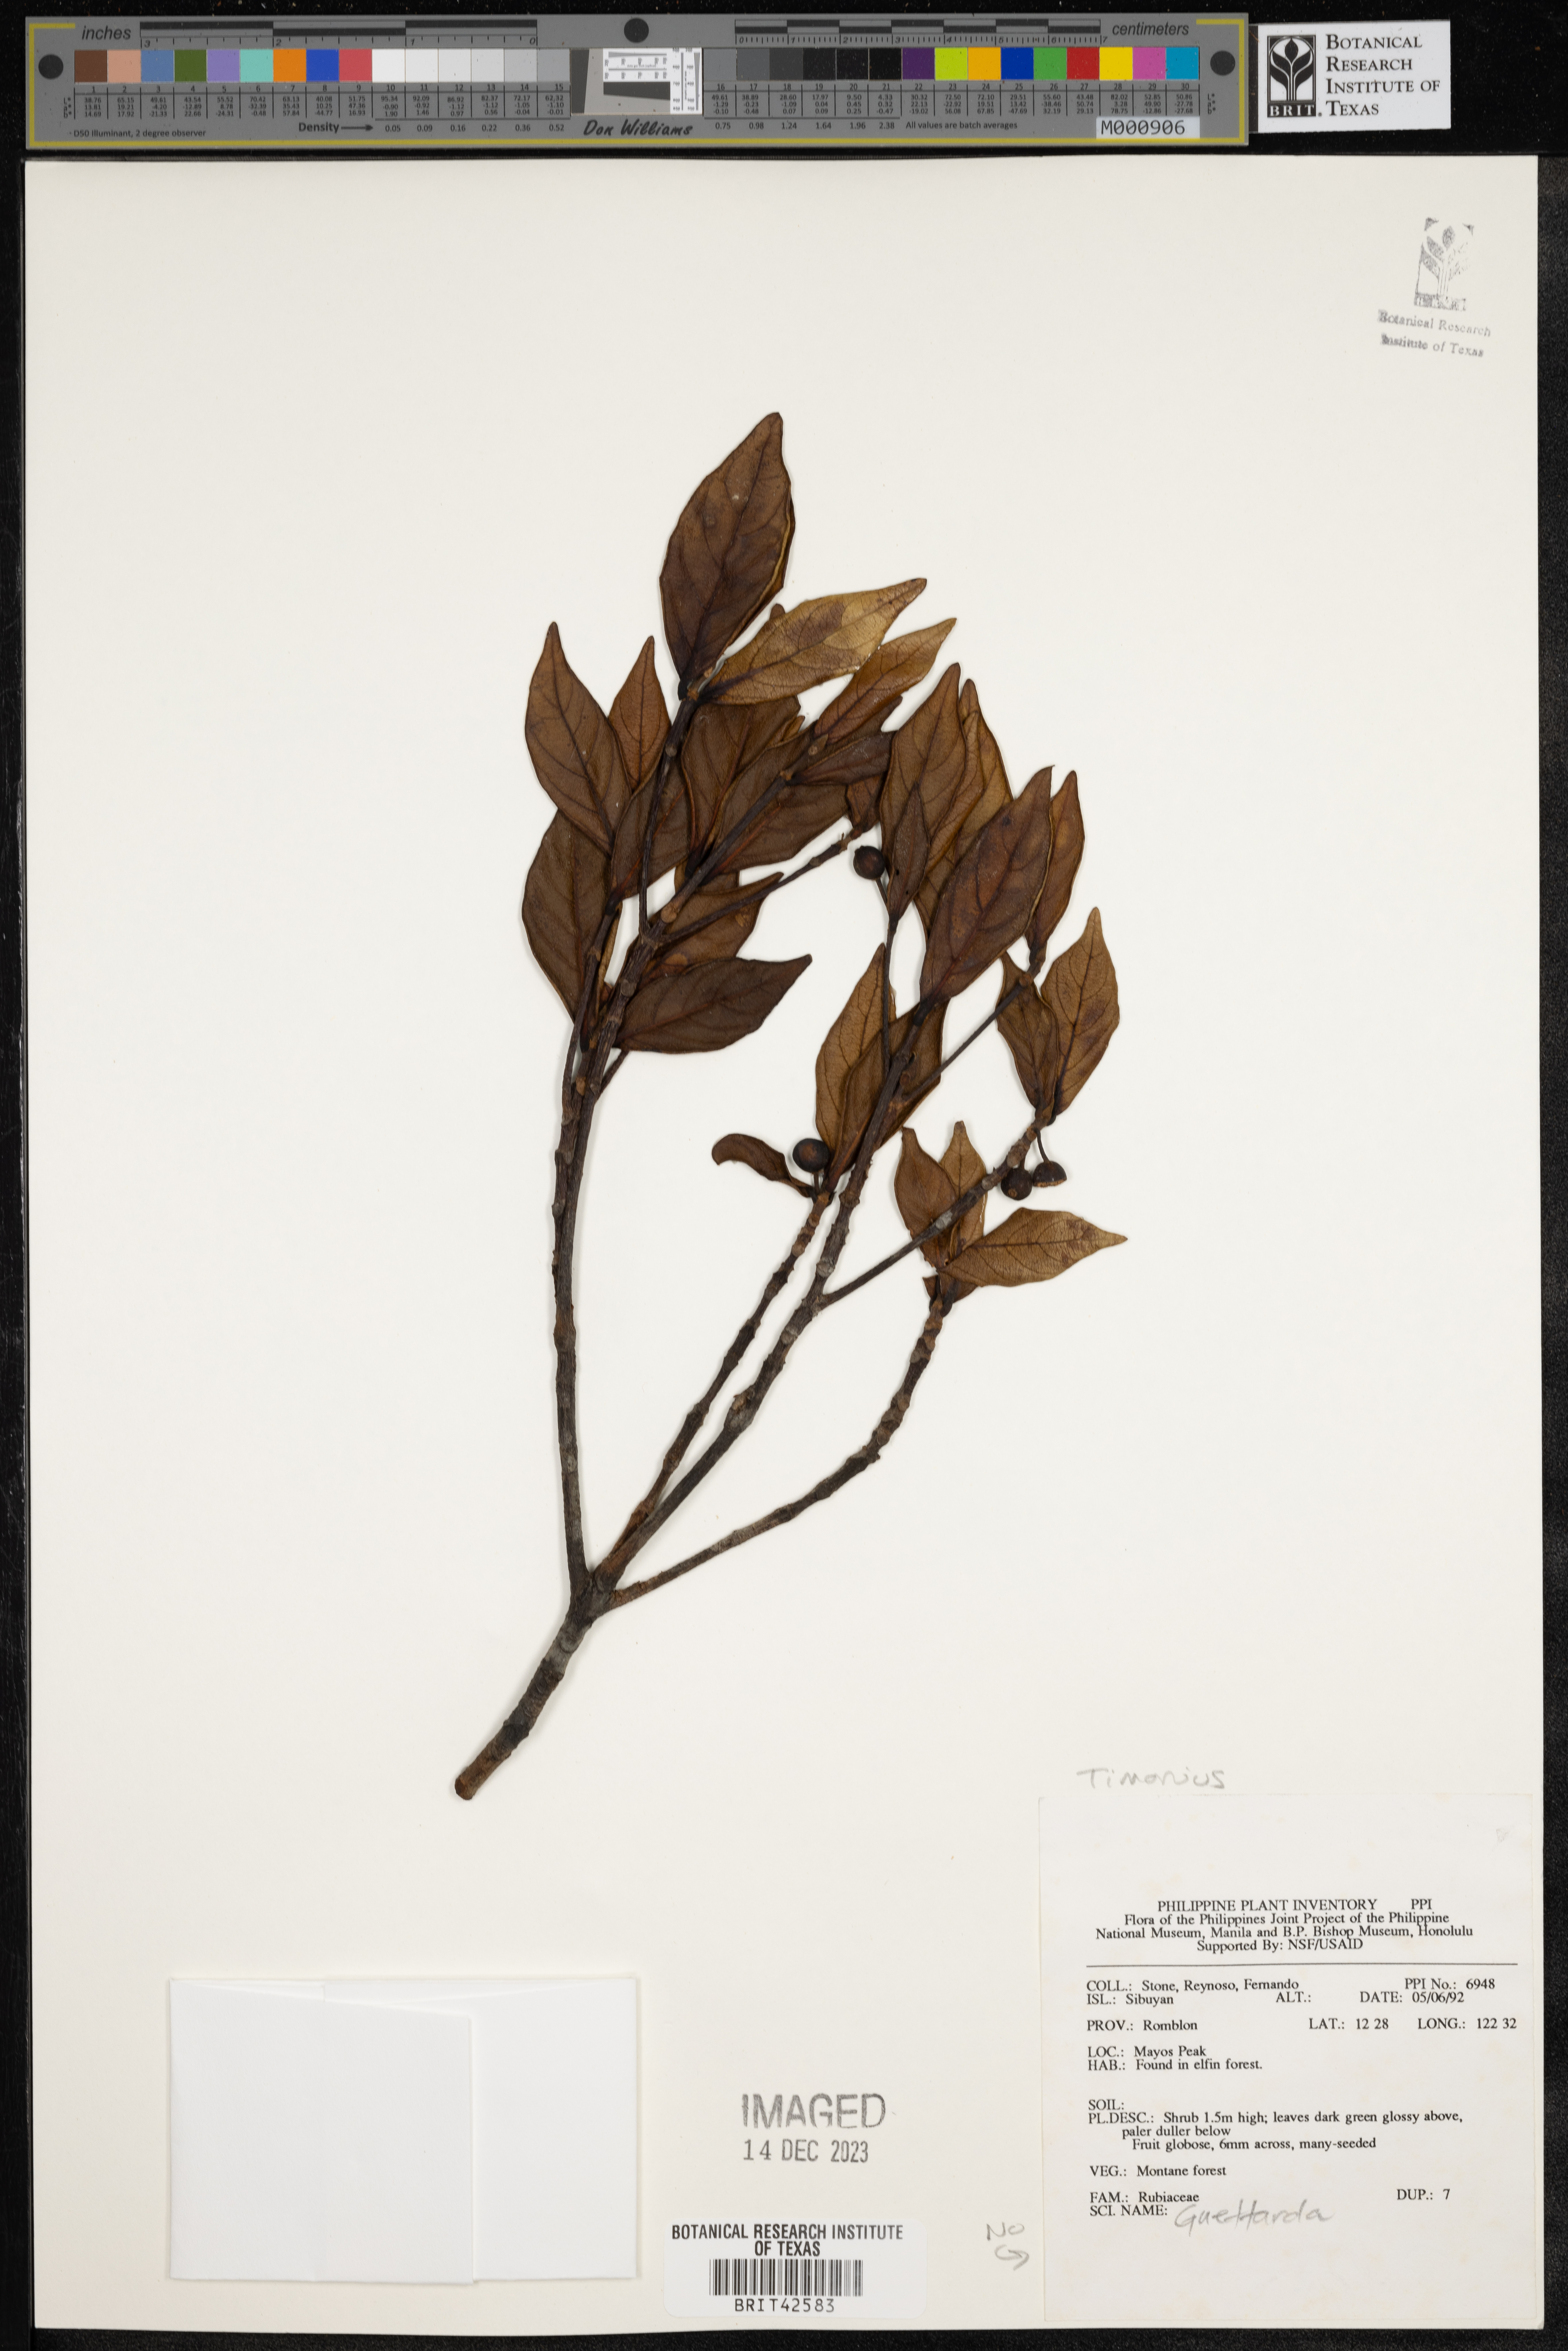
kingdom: Plantae
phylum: Tracheophyta
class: Magnoliopsida
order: Gentianales
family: Rubiaceae
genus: Timonius
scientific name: Timonius
